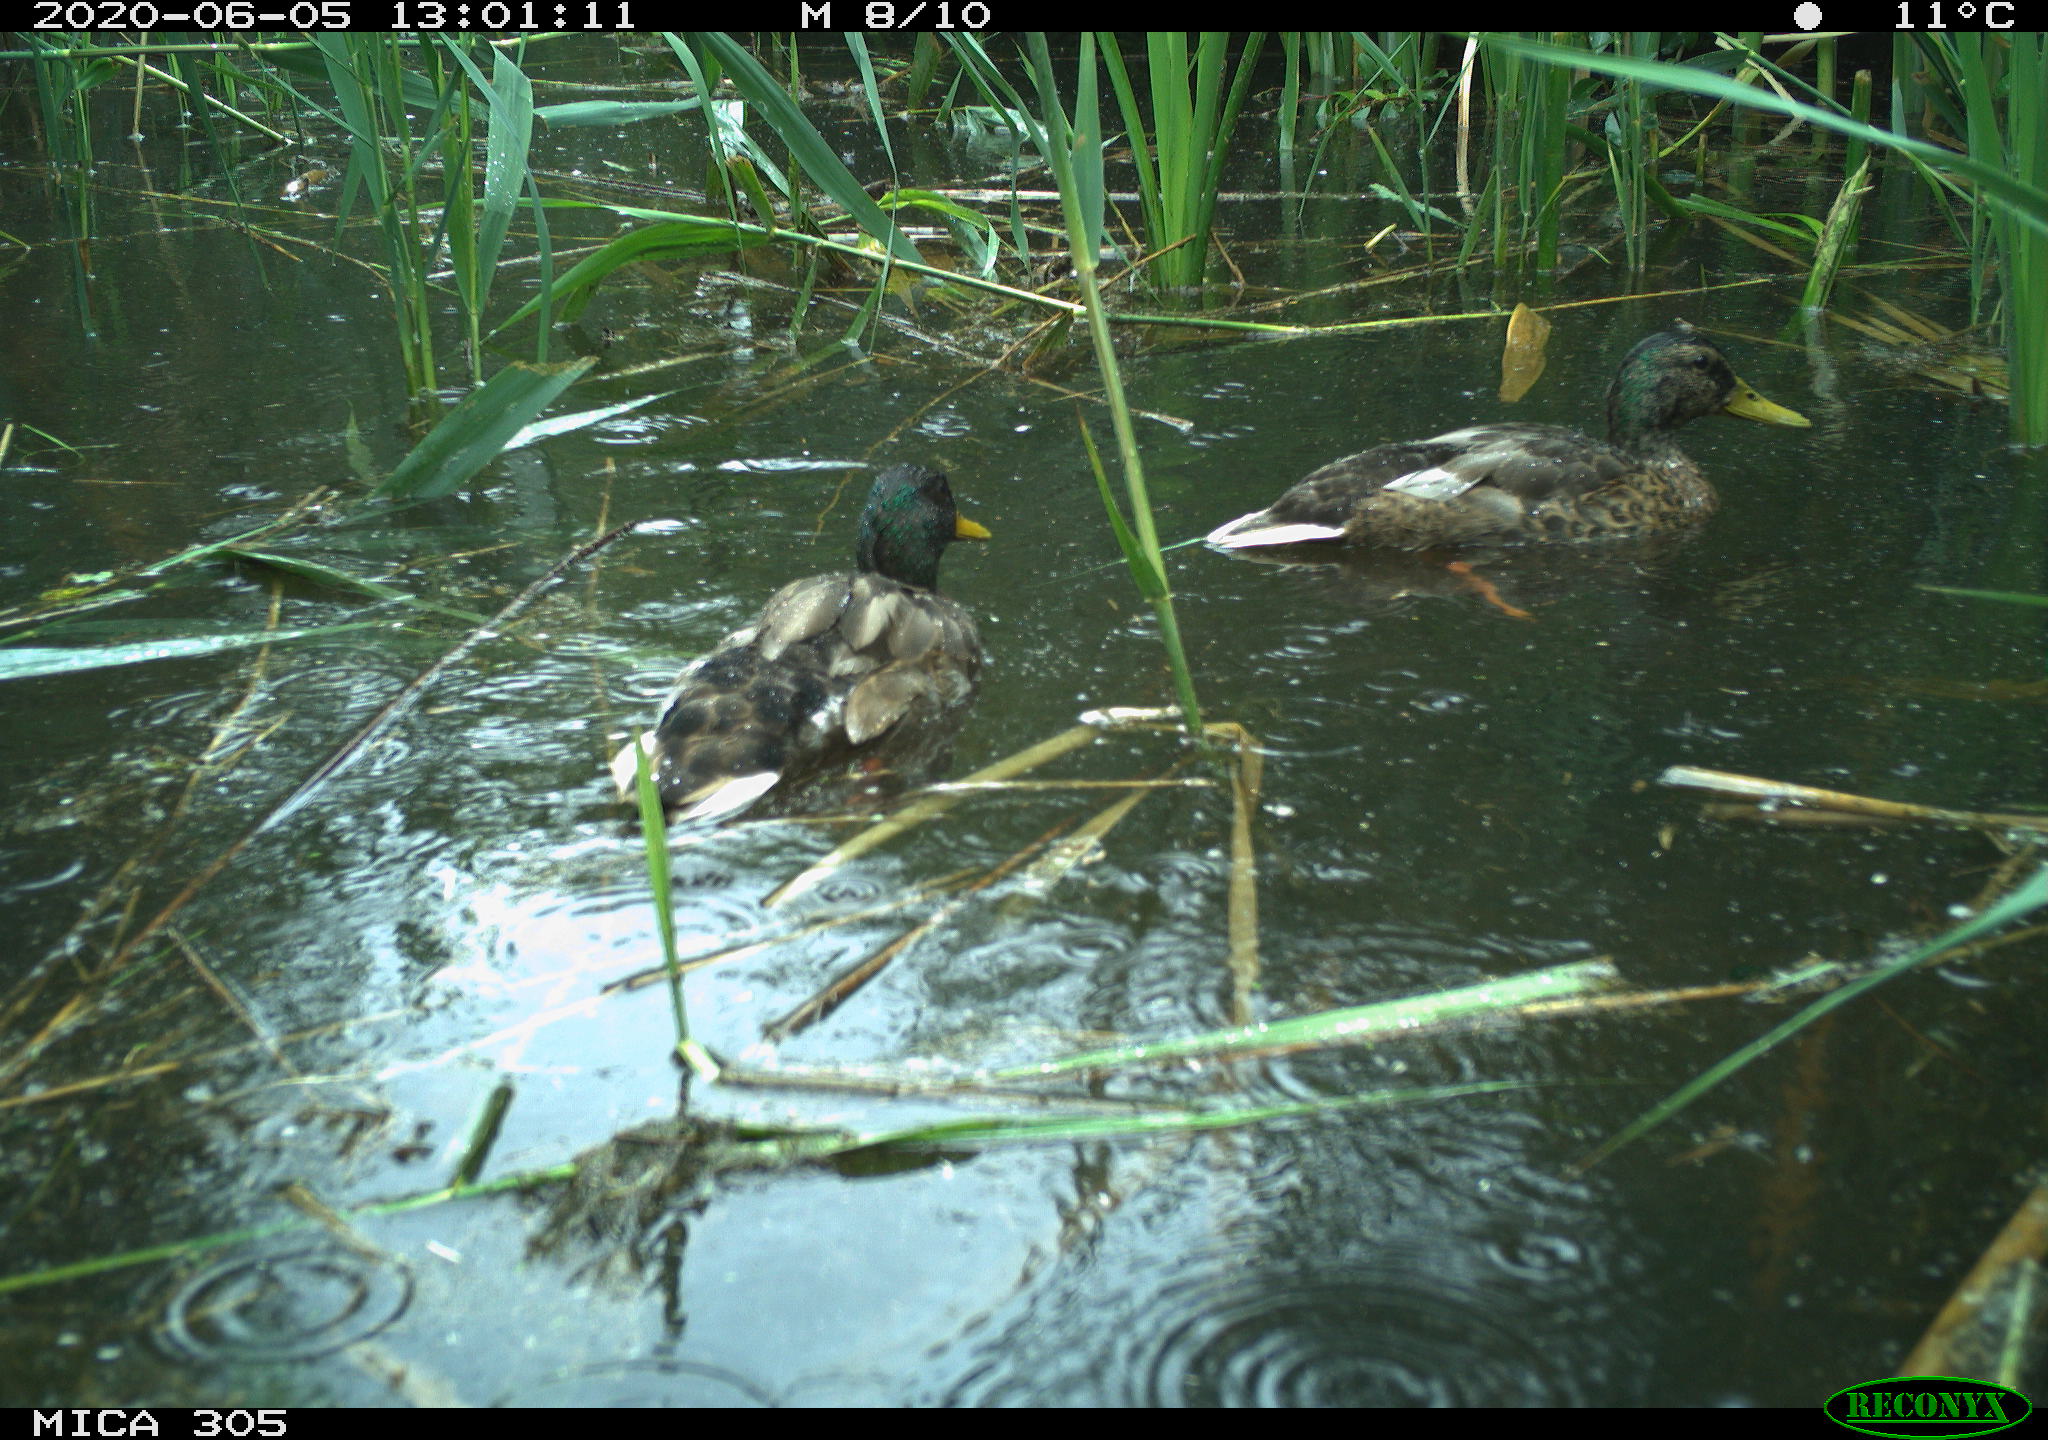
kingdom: Animalia
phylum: Chordata
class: Aves
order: Anseriformes
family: Anatidae
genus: Anas
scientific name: Anas platyrhynchos
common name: Mallard
